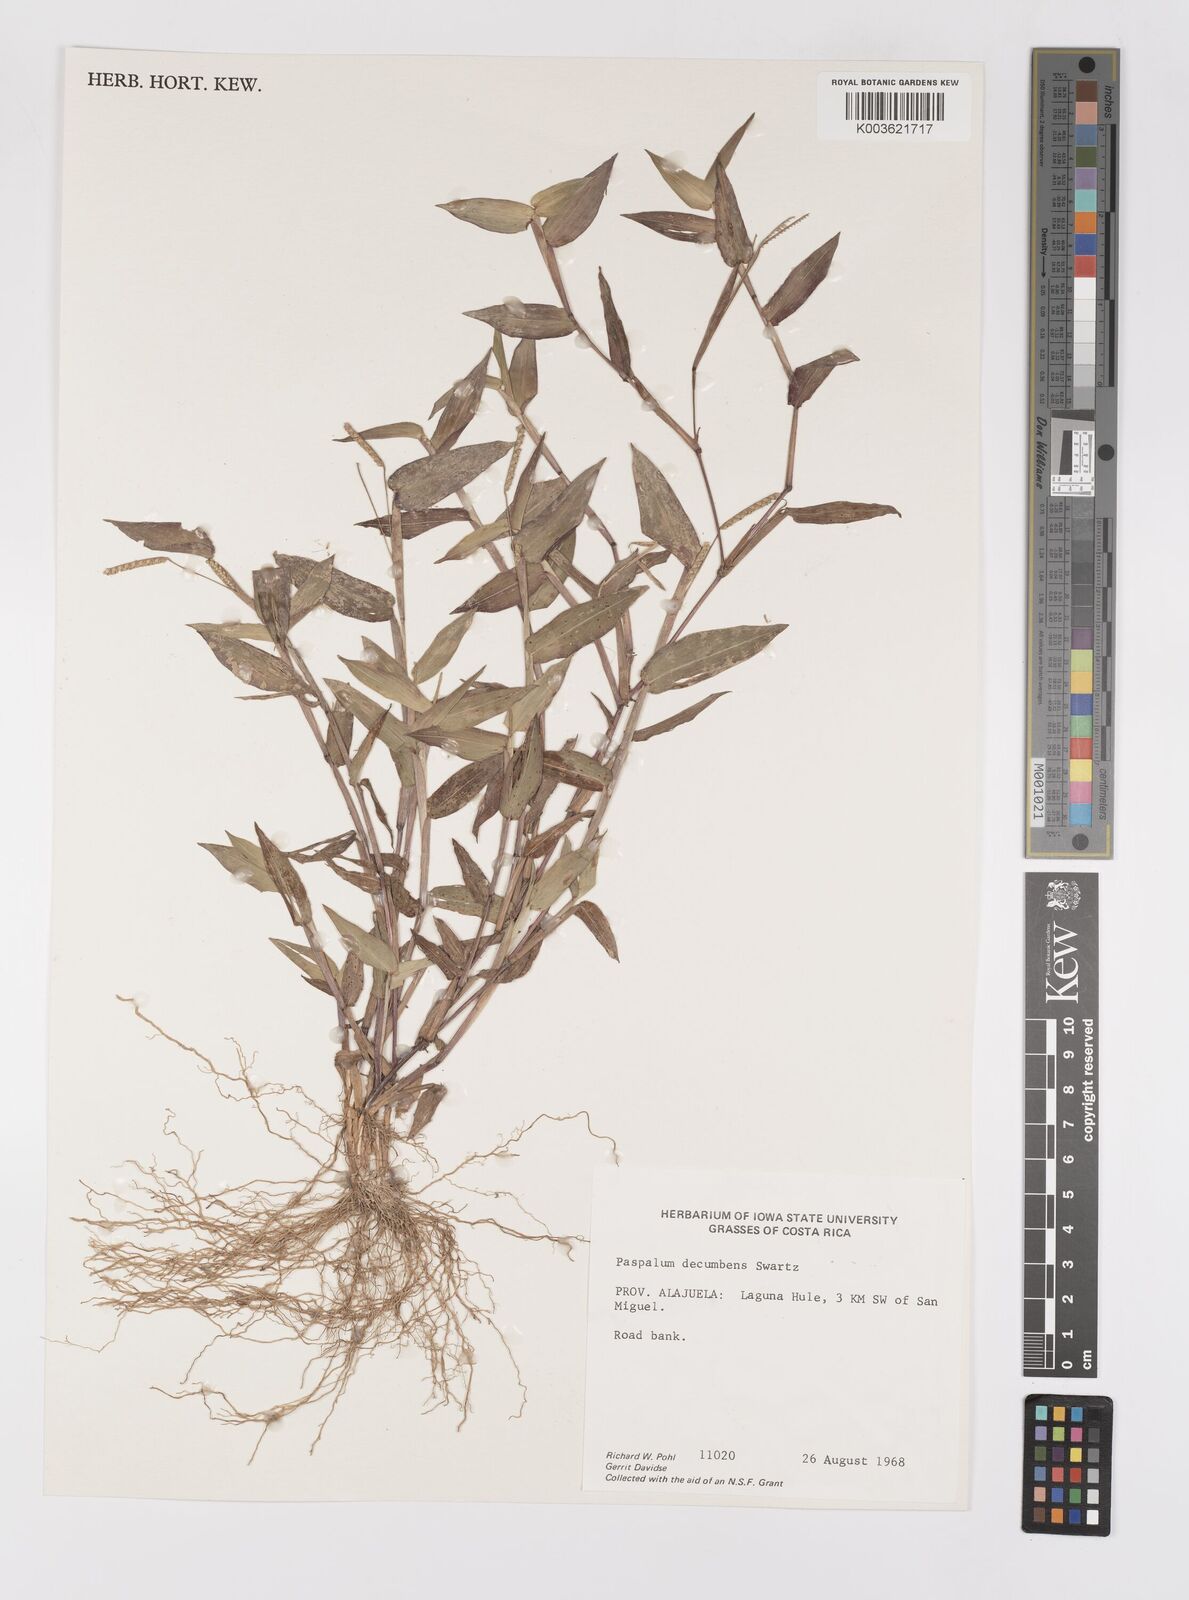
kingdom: Plantae
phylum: Tracheophyta
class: Liliopsida
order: Poales
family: Poaceae
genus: Paspalum
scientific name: Paspalum
